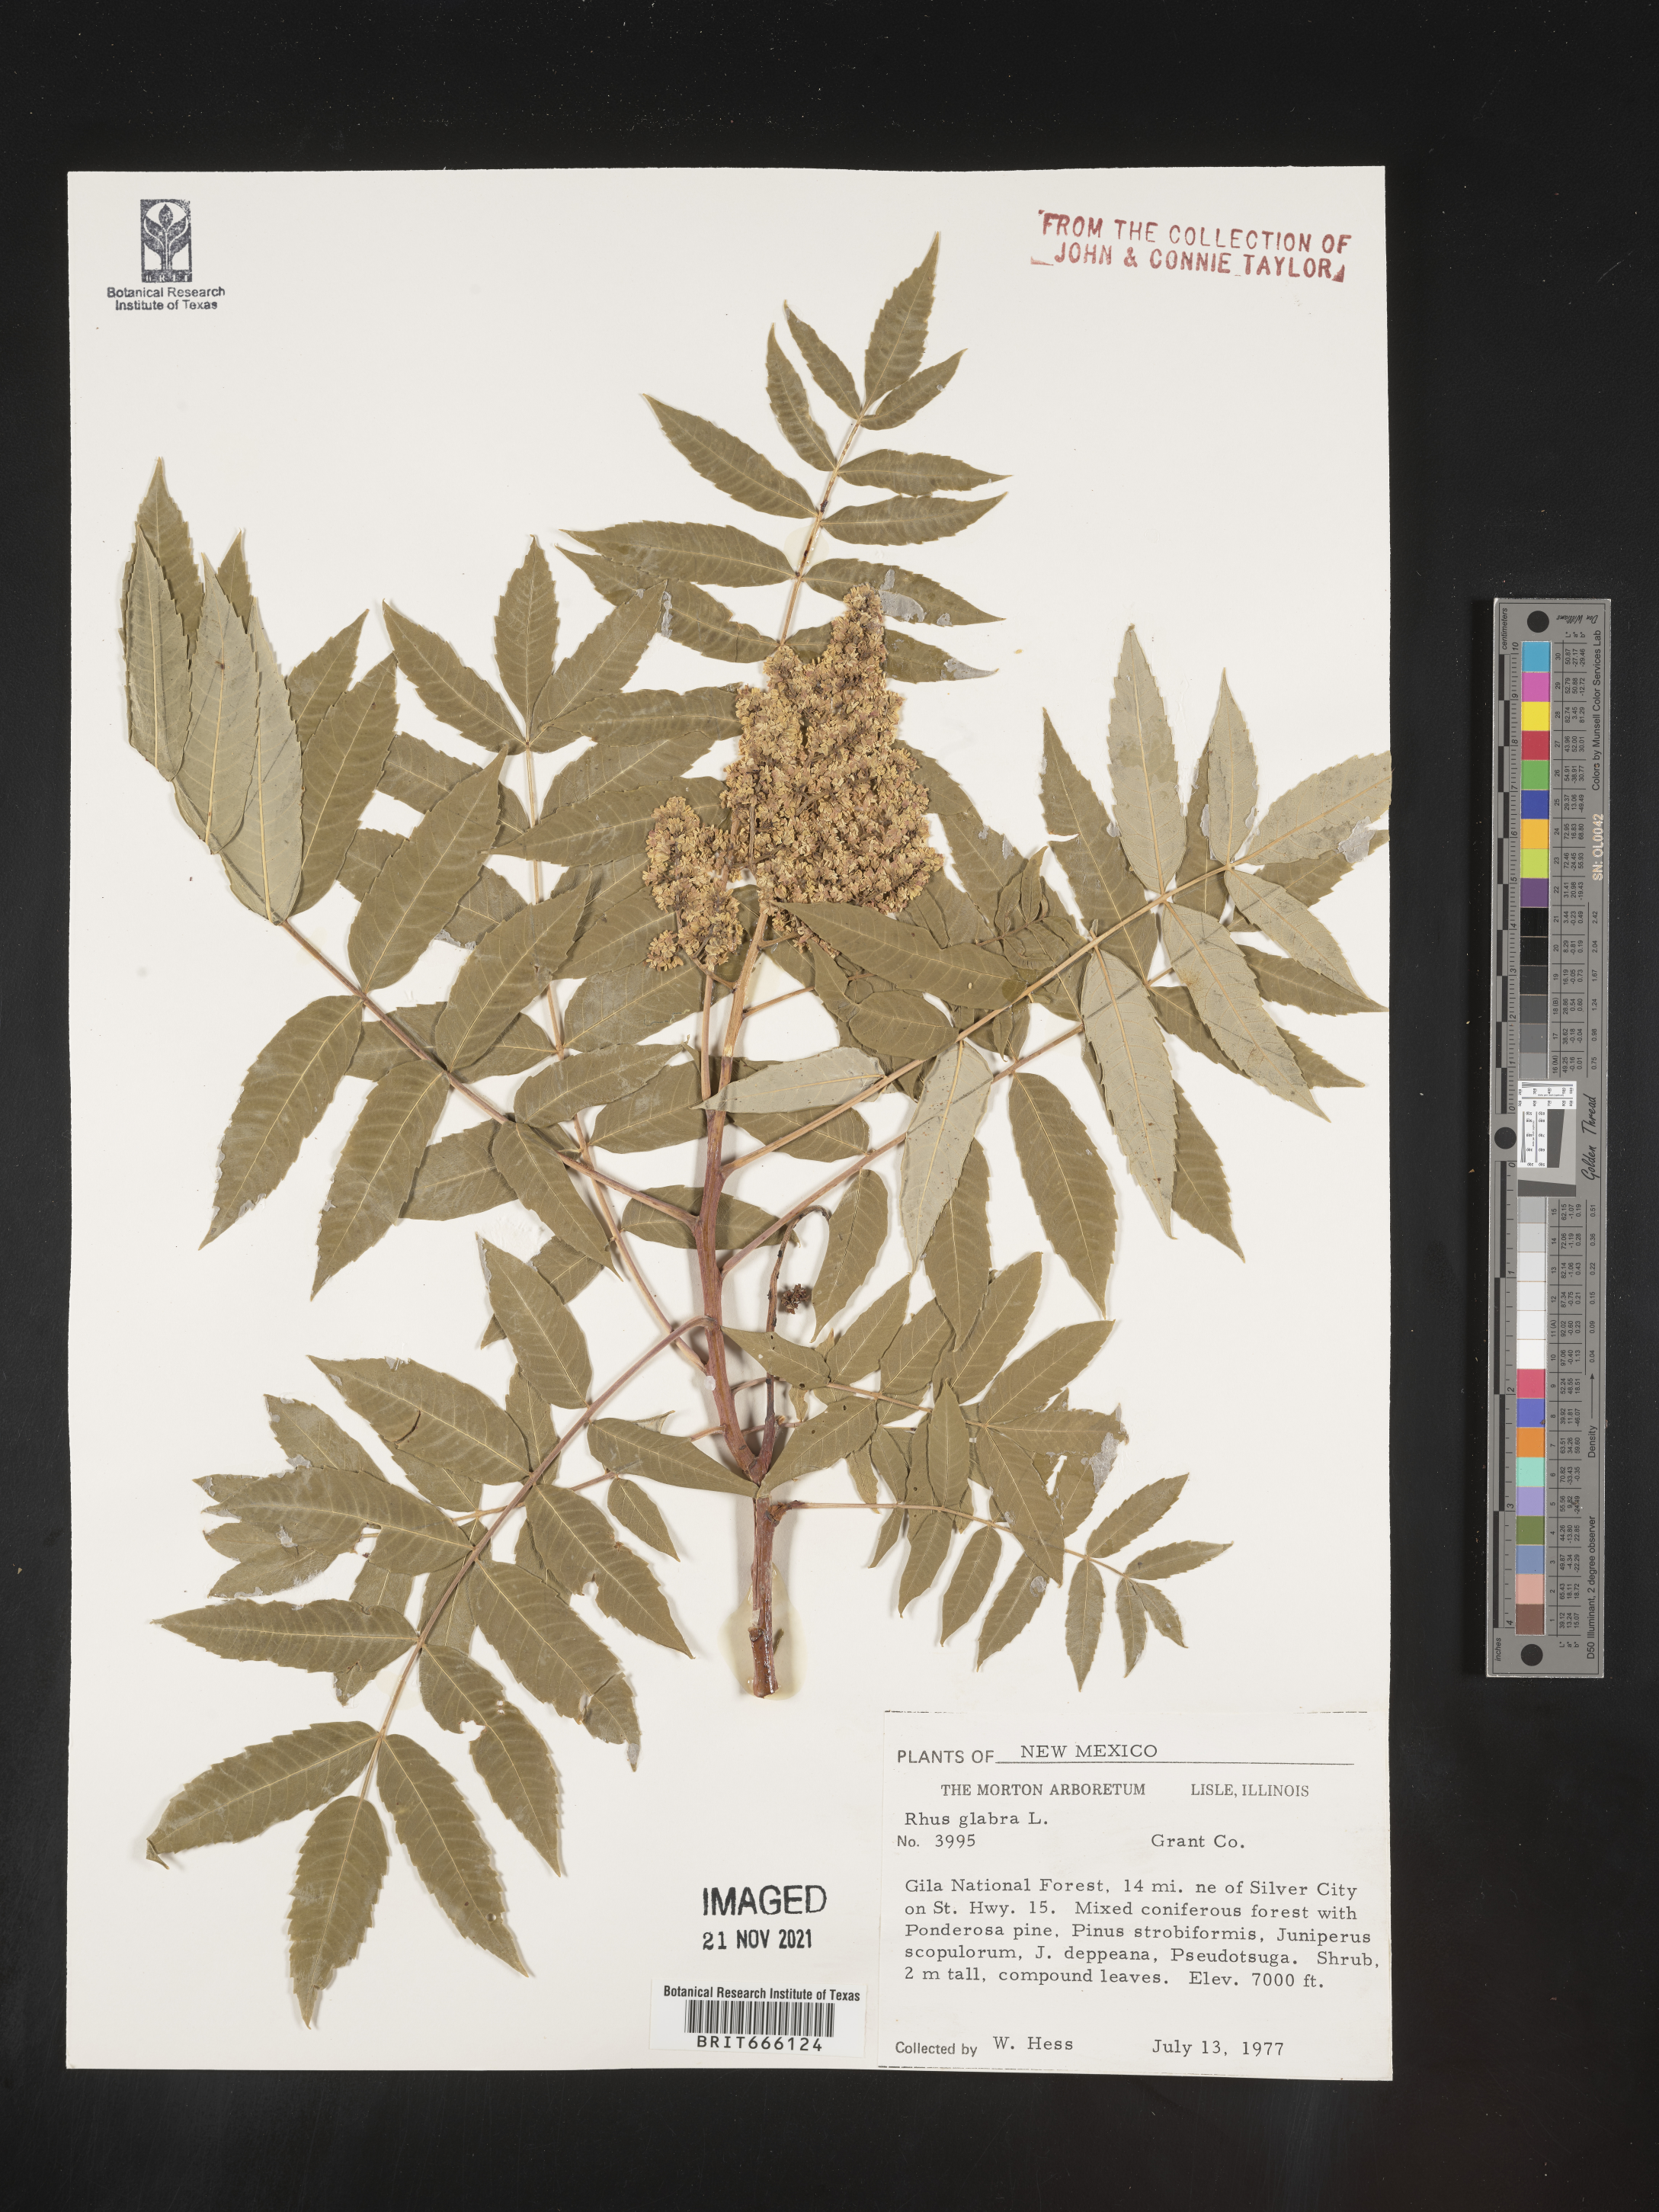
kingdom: Plantae
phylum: Tracheophyta
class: Magnoliopsida
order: Sapindales
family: Anacardiaceae
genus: Rhus
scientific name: Rhus glabra
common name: Scarlet sumac
